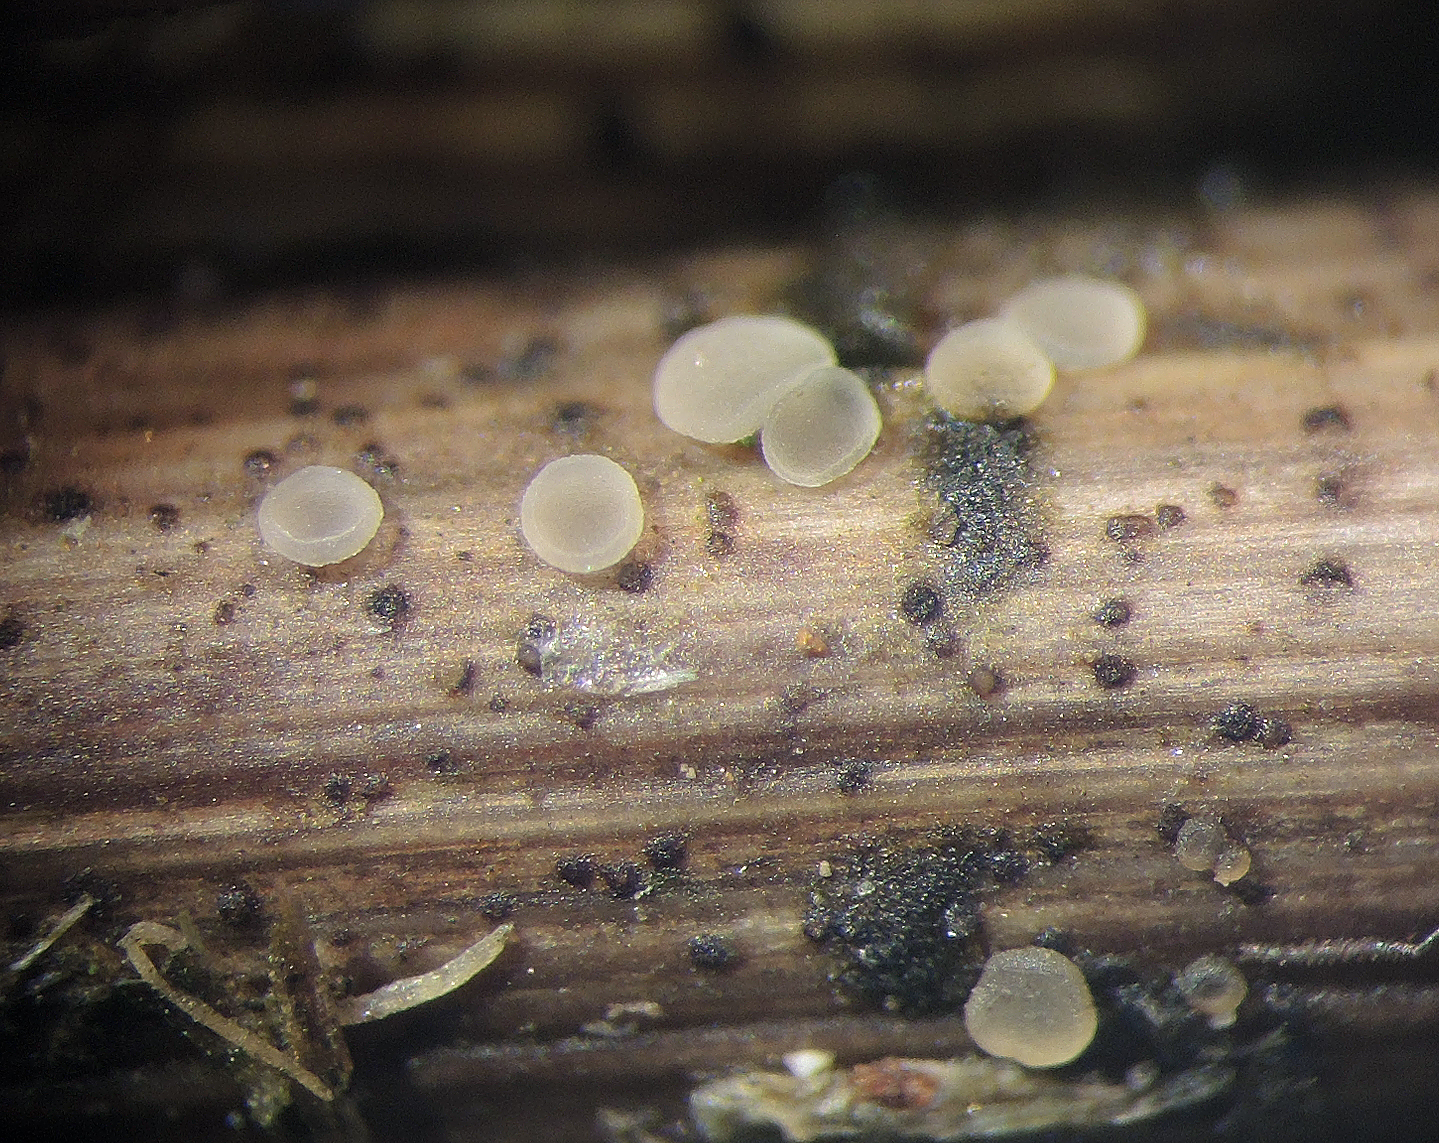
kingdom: Fungi
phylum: Ascomycota
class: Leotiomycetes
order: Helotiales
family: Mollisiaceae
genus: Mollisia
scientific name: Mollisia
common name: gråskive
